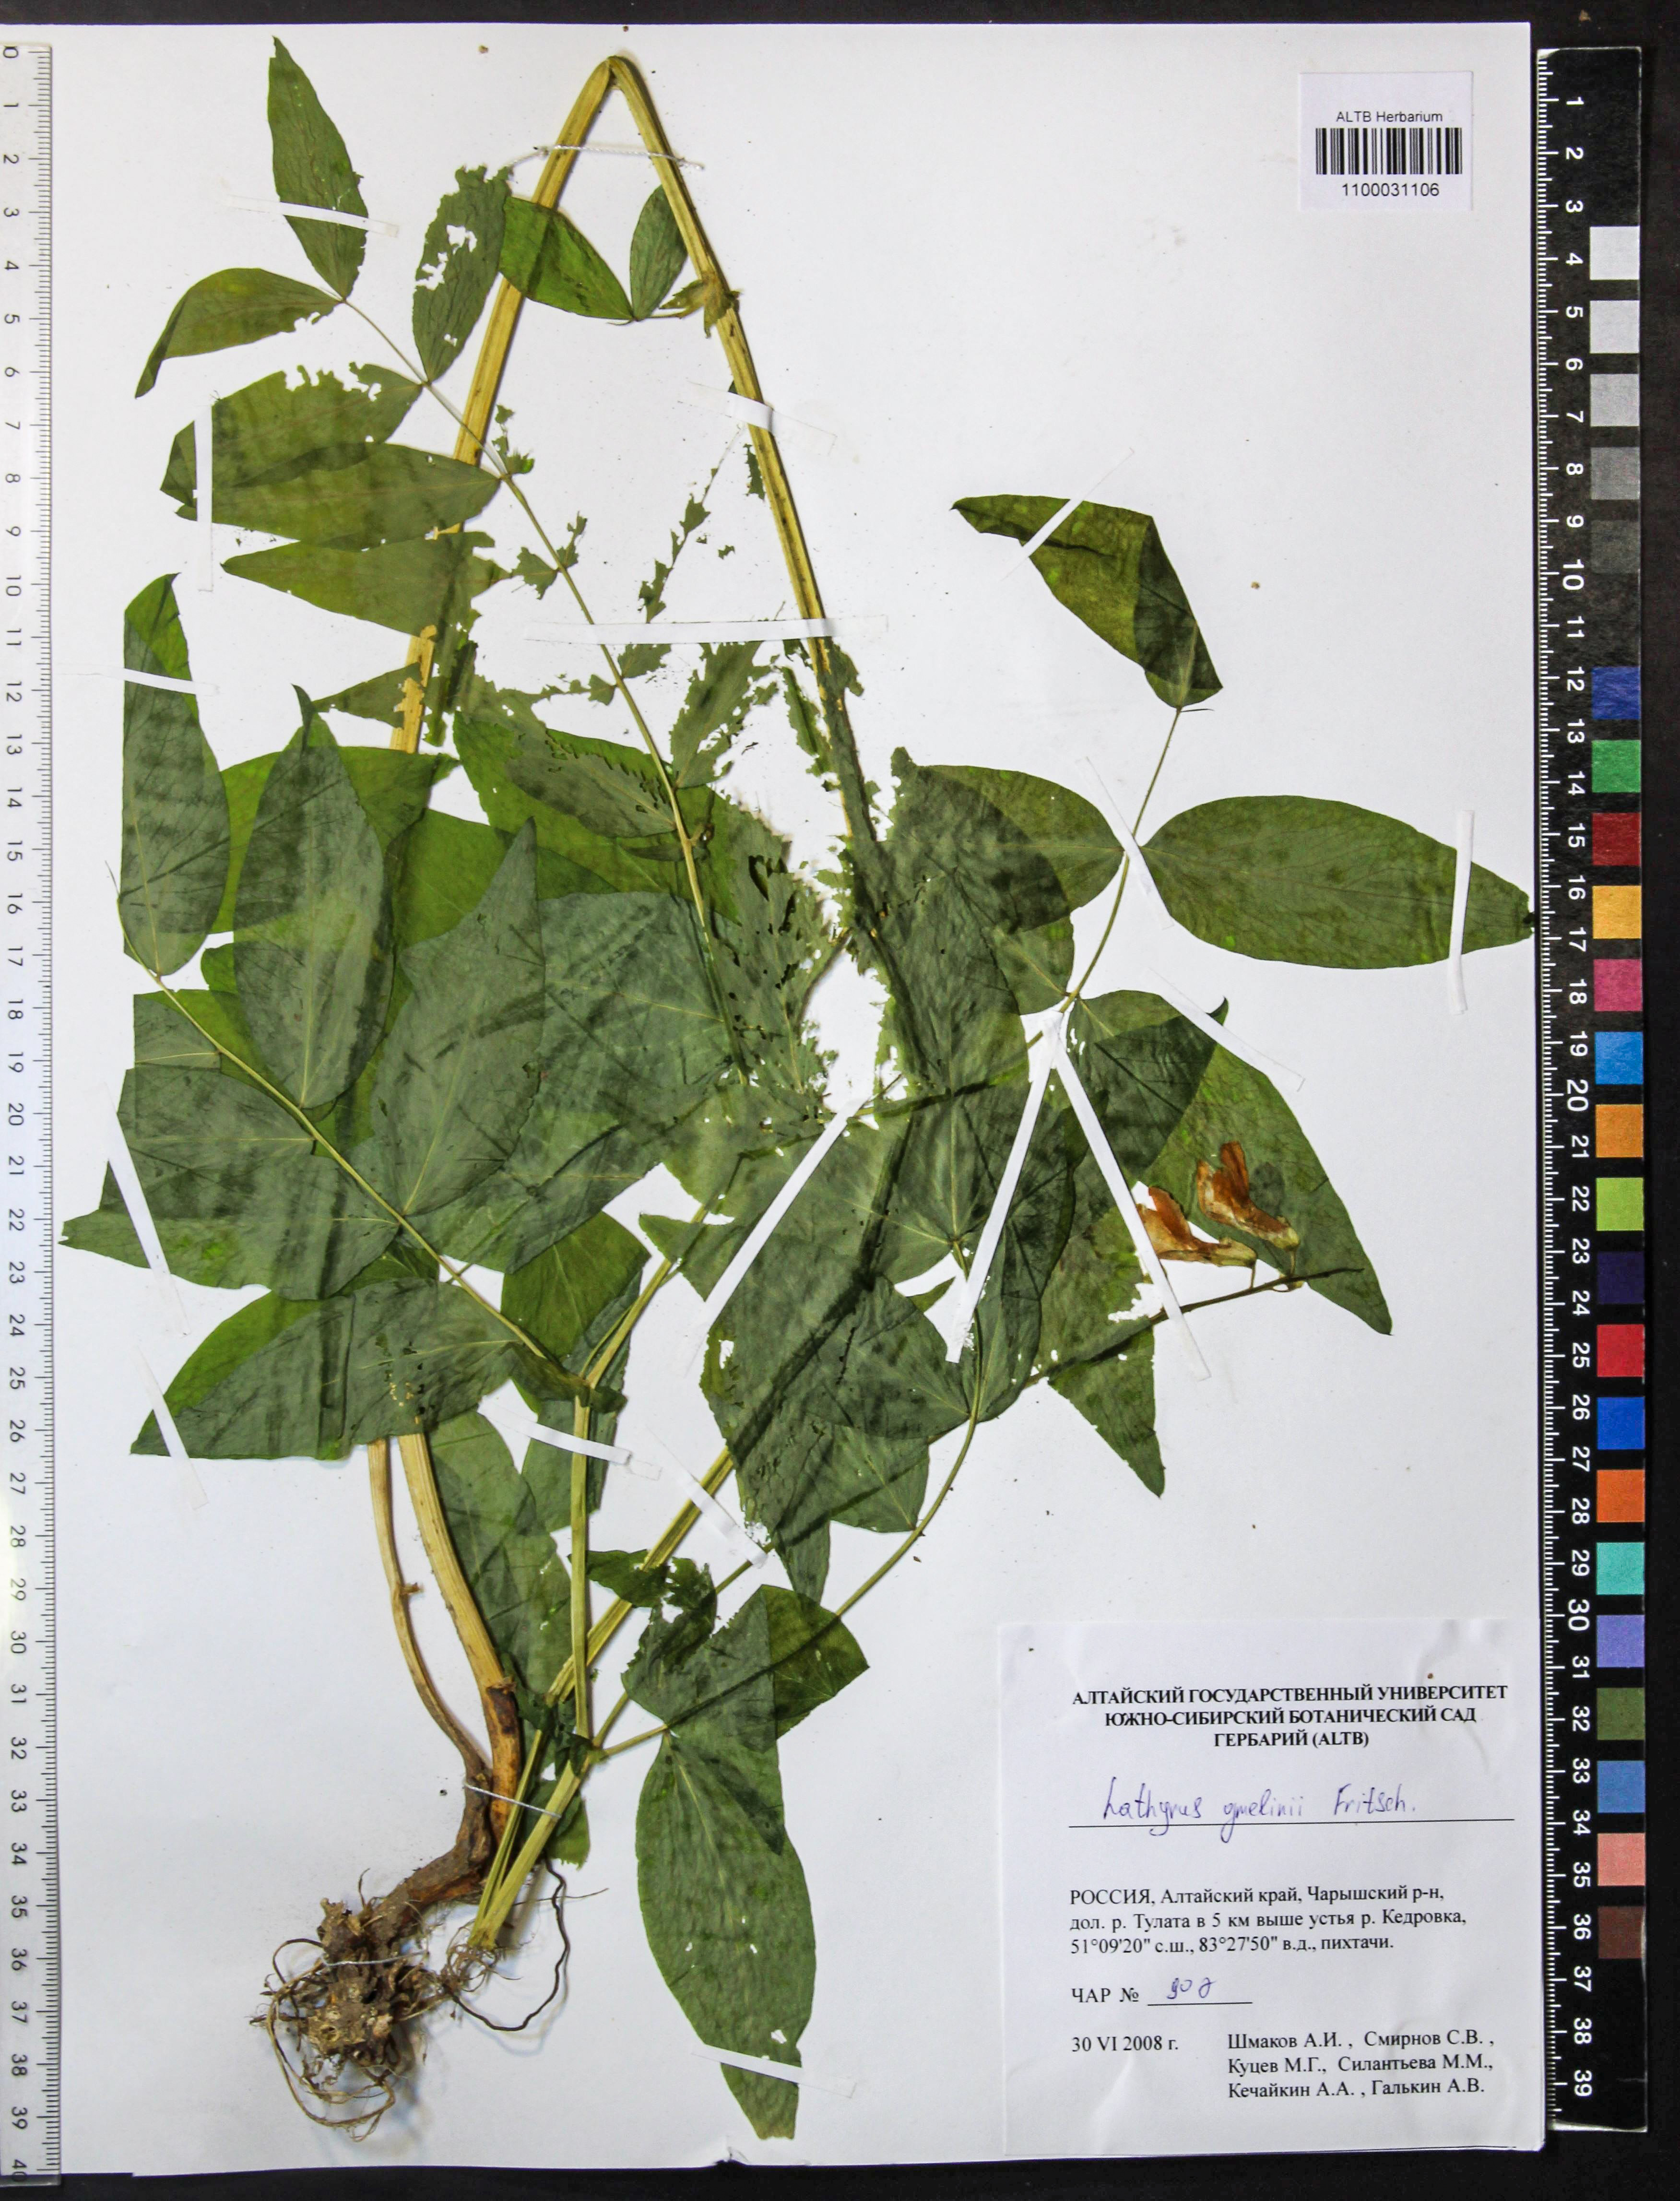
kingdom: Plantae
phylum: Tracheophyta
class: Magnoliopsida
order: Fabales
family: Fabaceae
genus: Lathyrus
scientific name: Lathyrus gmelinii
